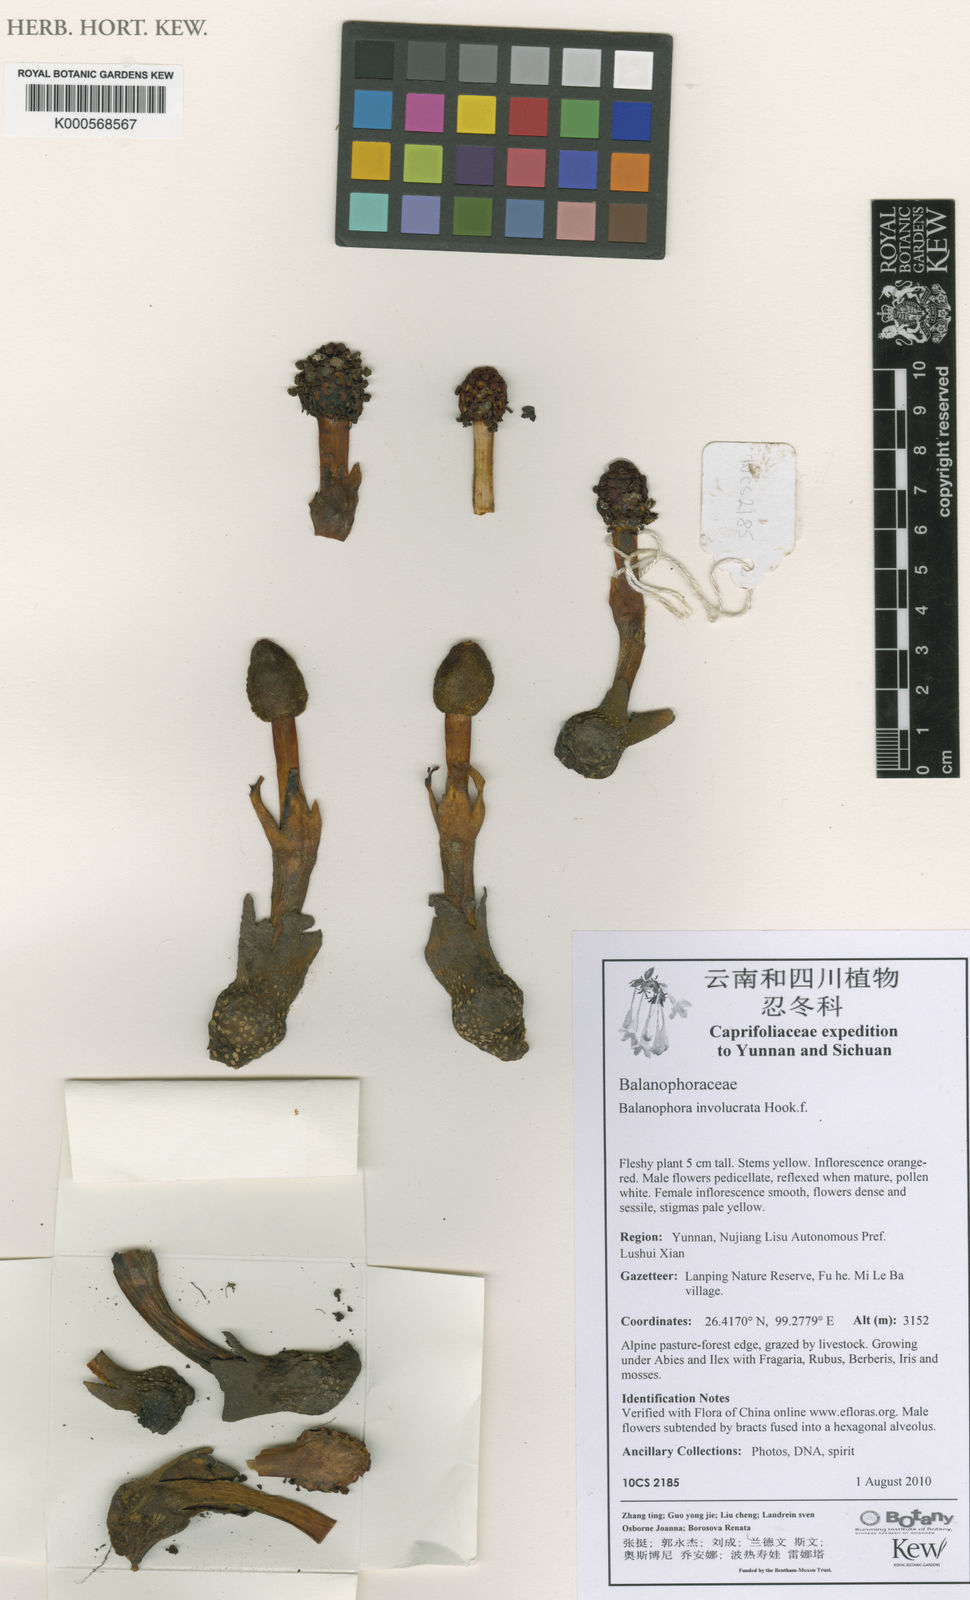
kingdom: Plantae
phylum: Tracheophyta
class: Magnoliopsida
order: Solanales
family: Solanaceae
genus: Solanum
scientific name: Solanum aculeatissimum
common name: Dutch eggplant
